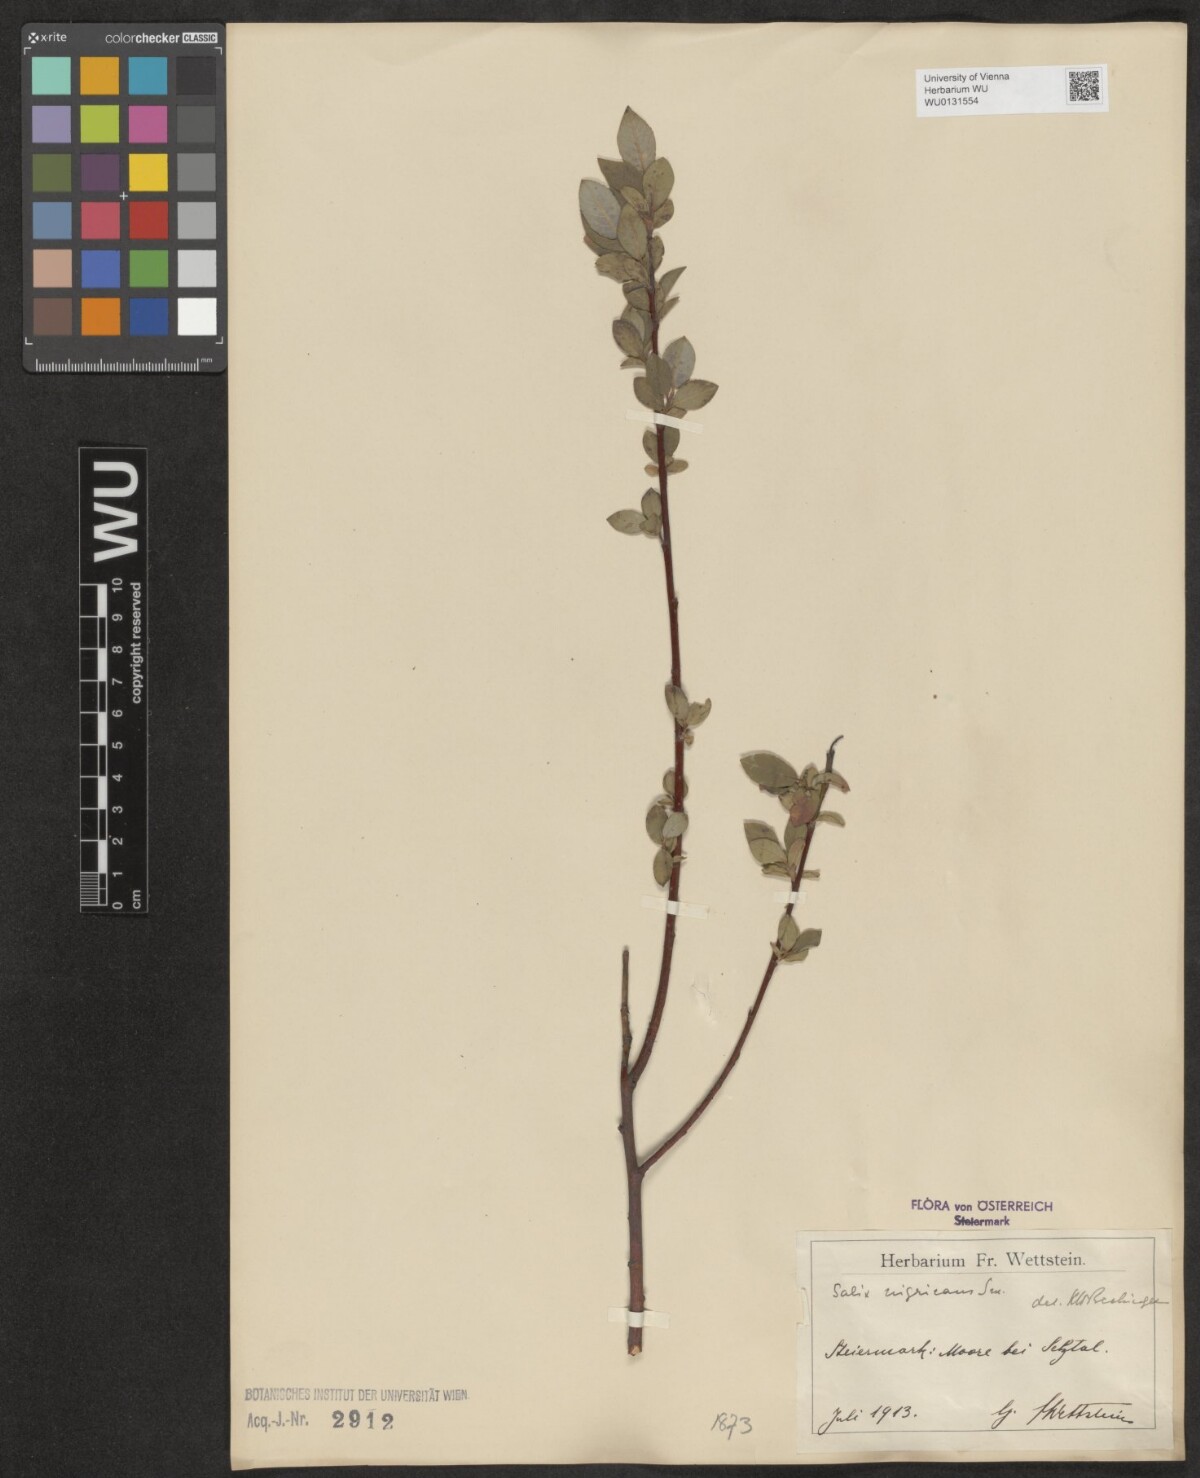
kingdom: Plantae
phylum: Tracheophyta
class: Magnoliopsida
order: Malpighiales
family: Salicaceae
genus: Salix
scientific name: Salix myrsinifolia
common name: Dark-leaved willow
